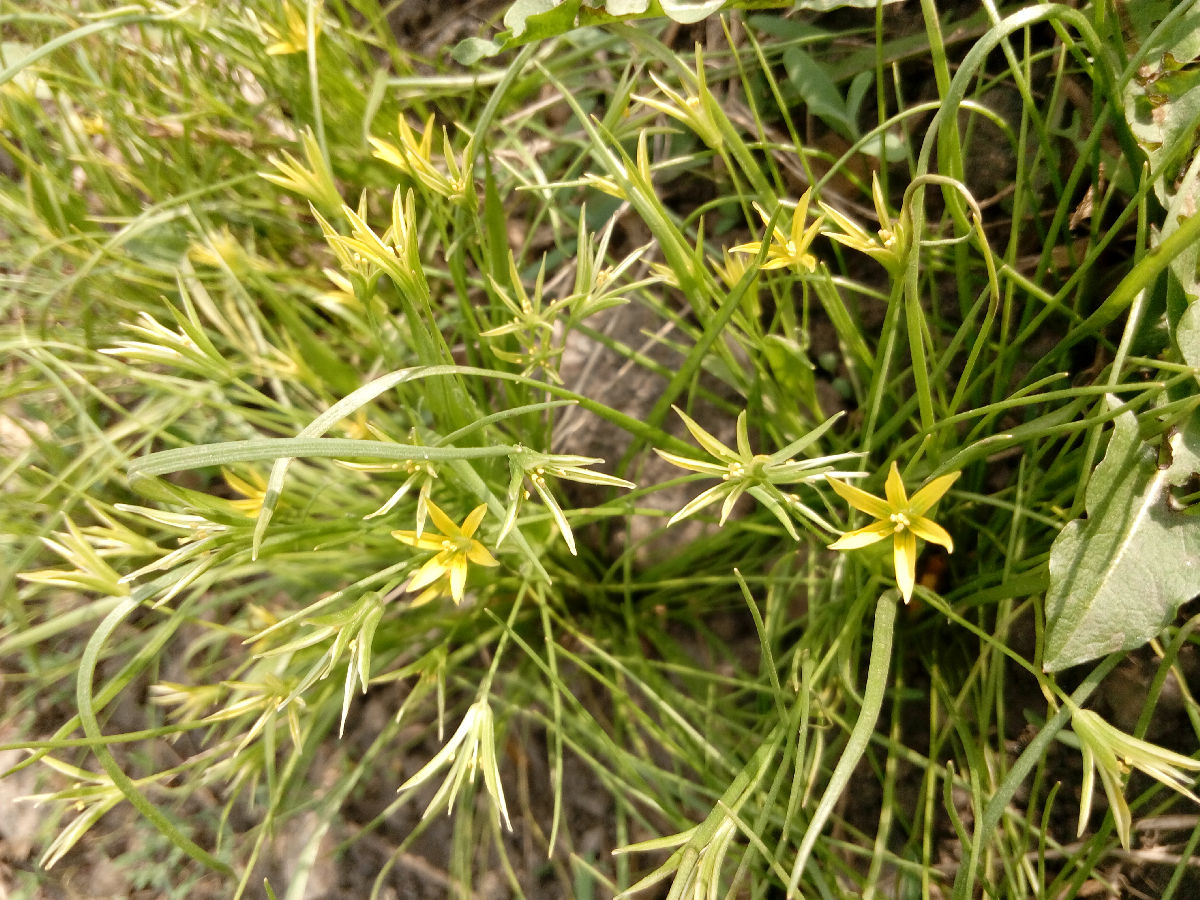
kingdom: Plantae
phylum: Tracheophyta
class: Liliopsida
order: Liliales
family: Liliaceae
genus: Gagea
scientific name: Gagea minima
